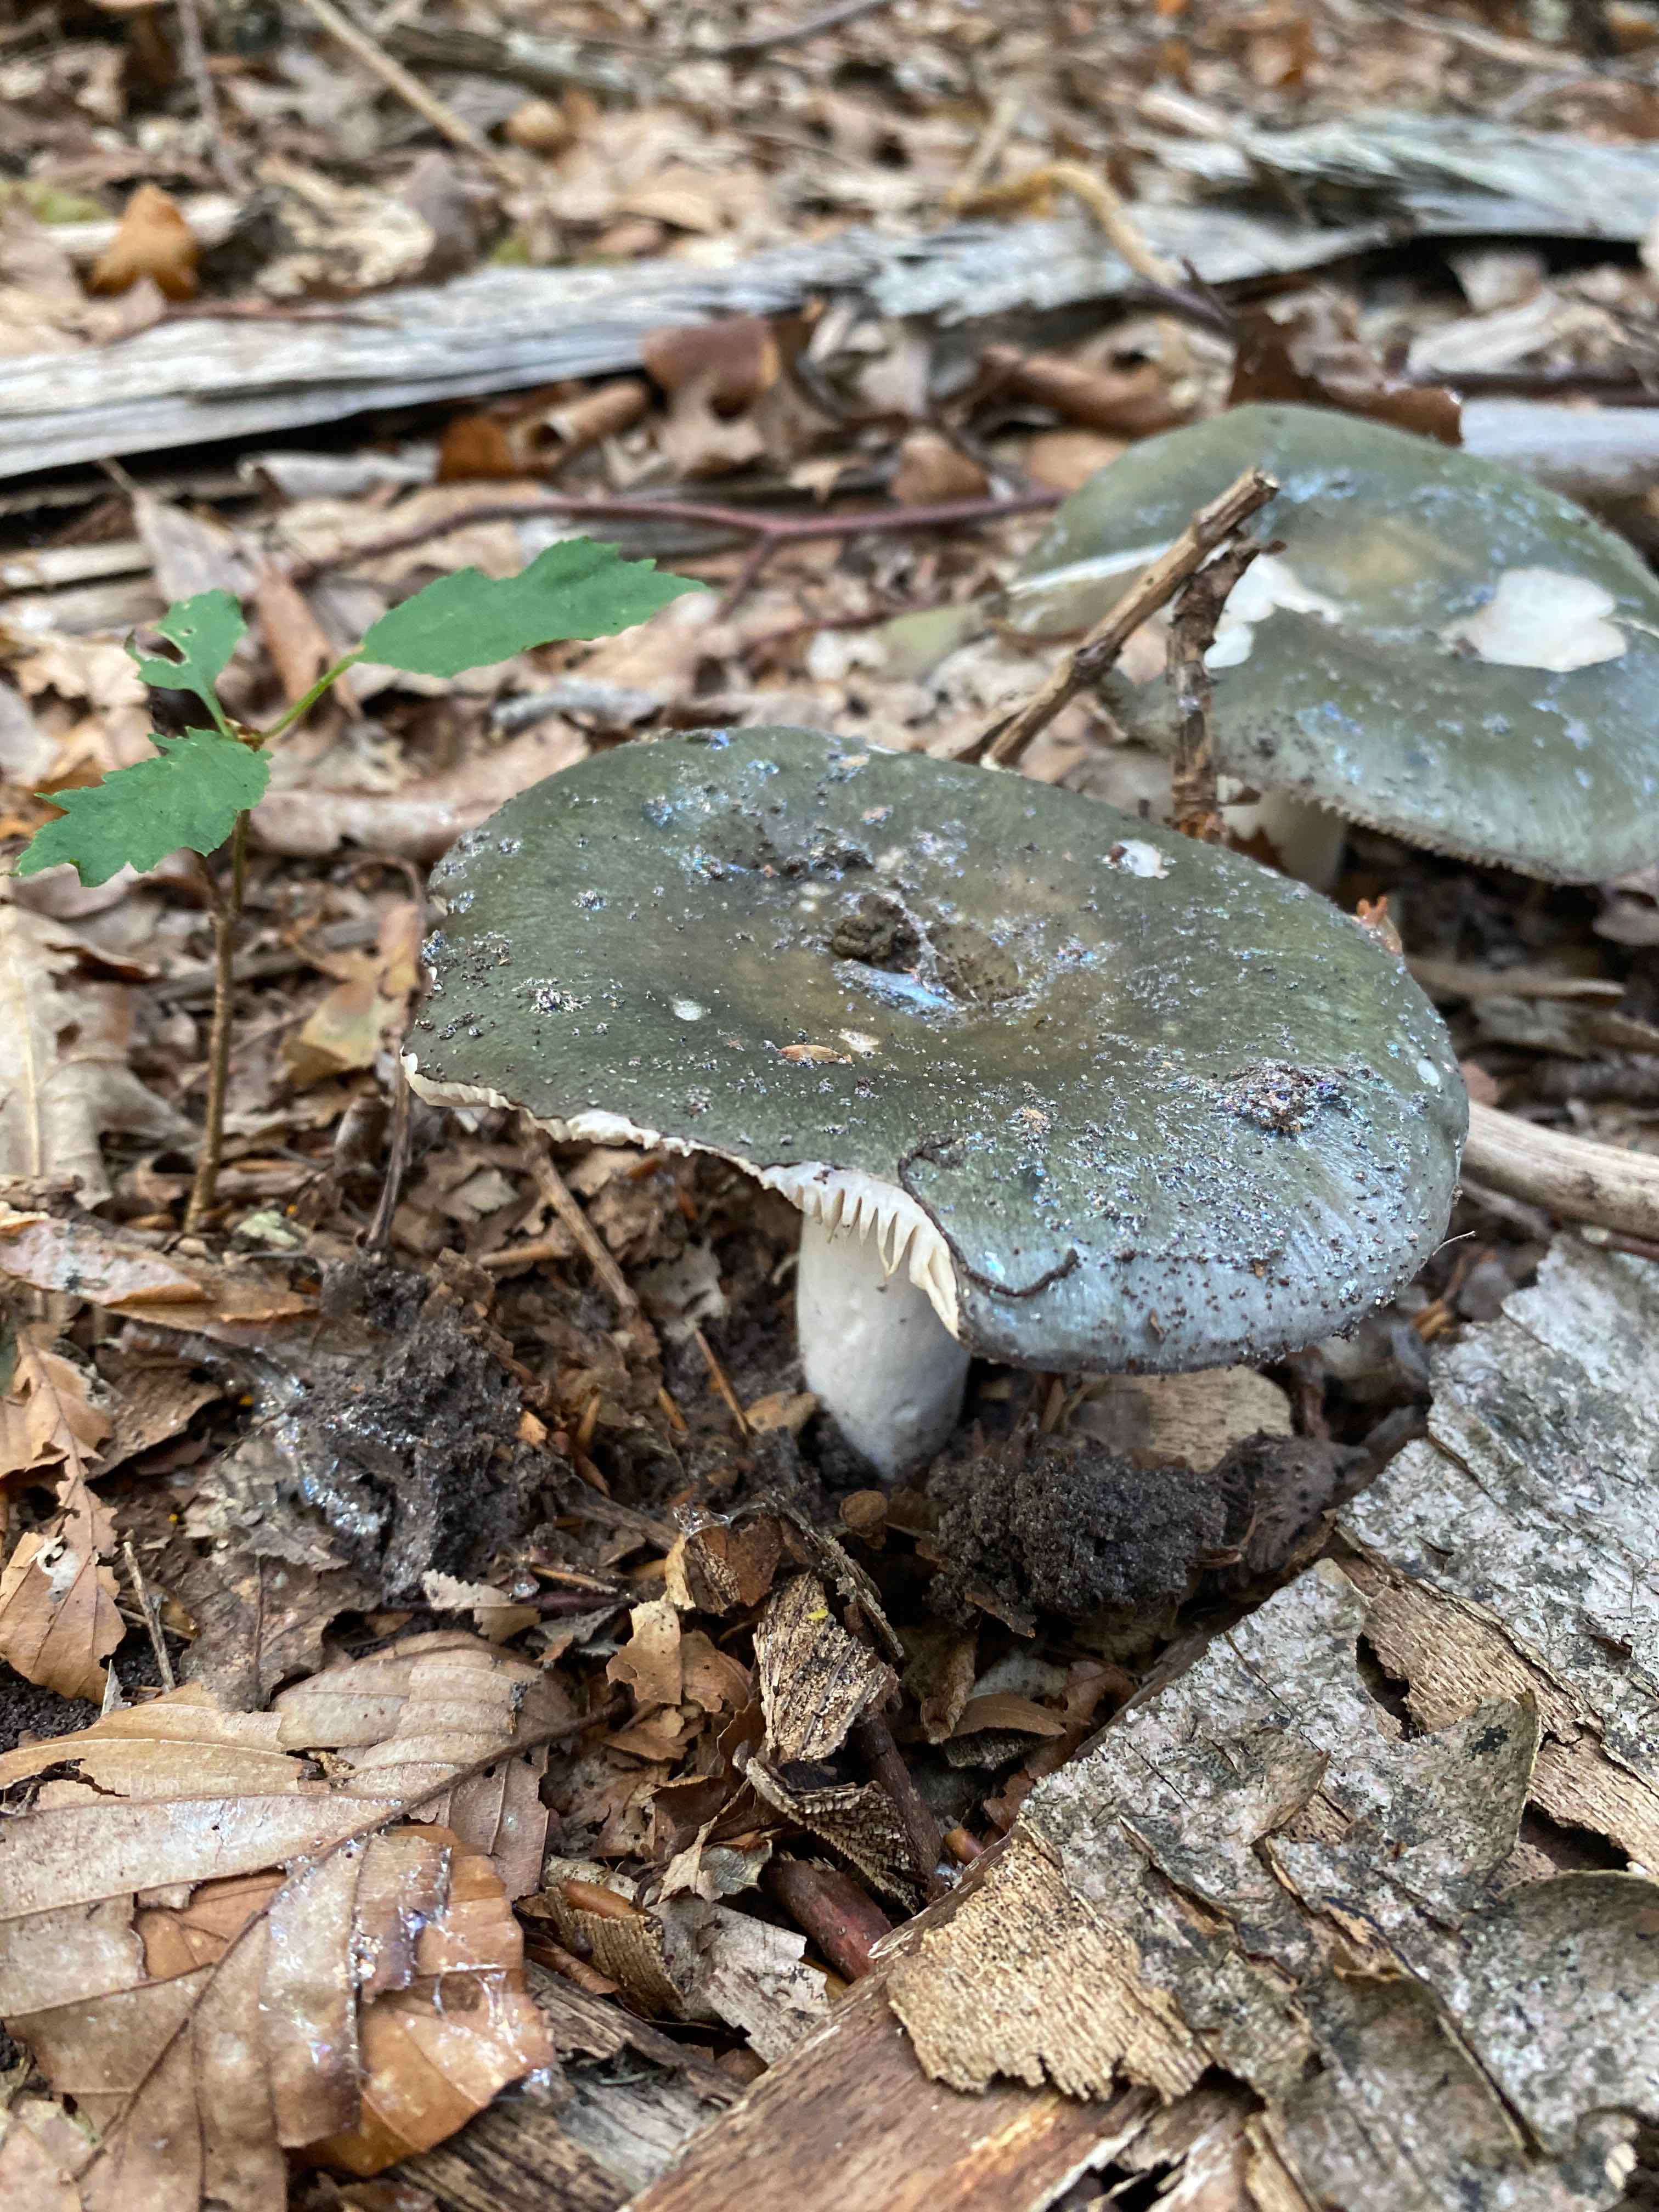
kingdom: Fungi
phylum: Basidiomycota
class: Agaricomycetes
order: Russulales
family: Russulaceae
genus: Russula
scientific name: Russula
